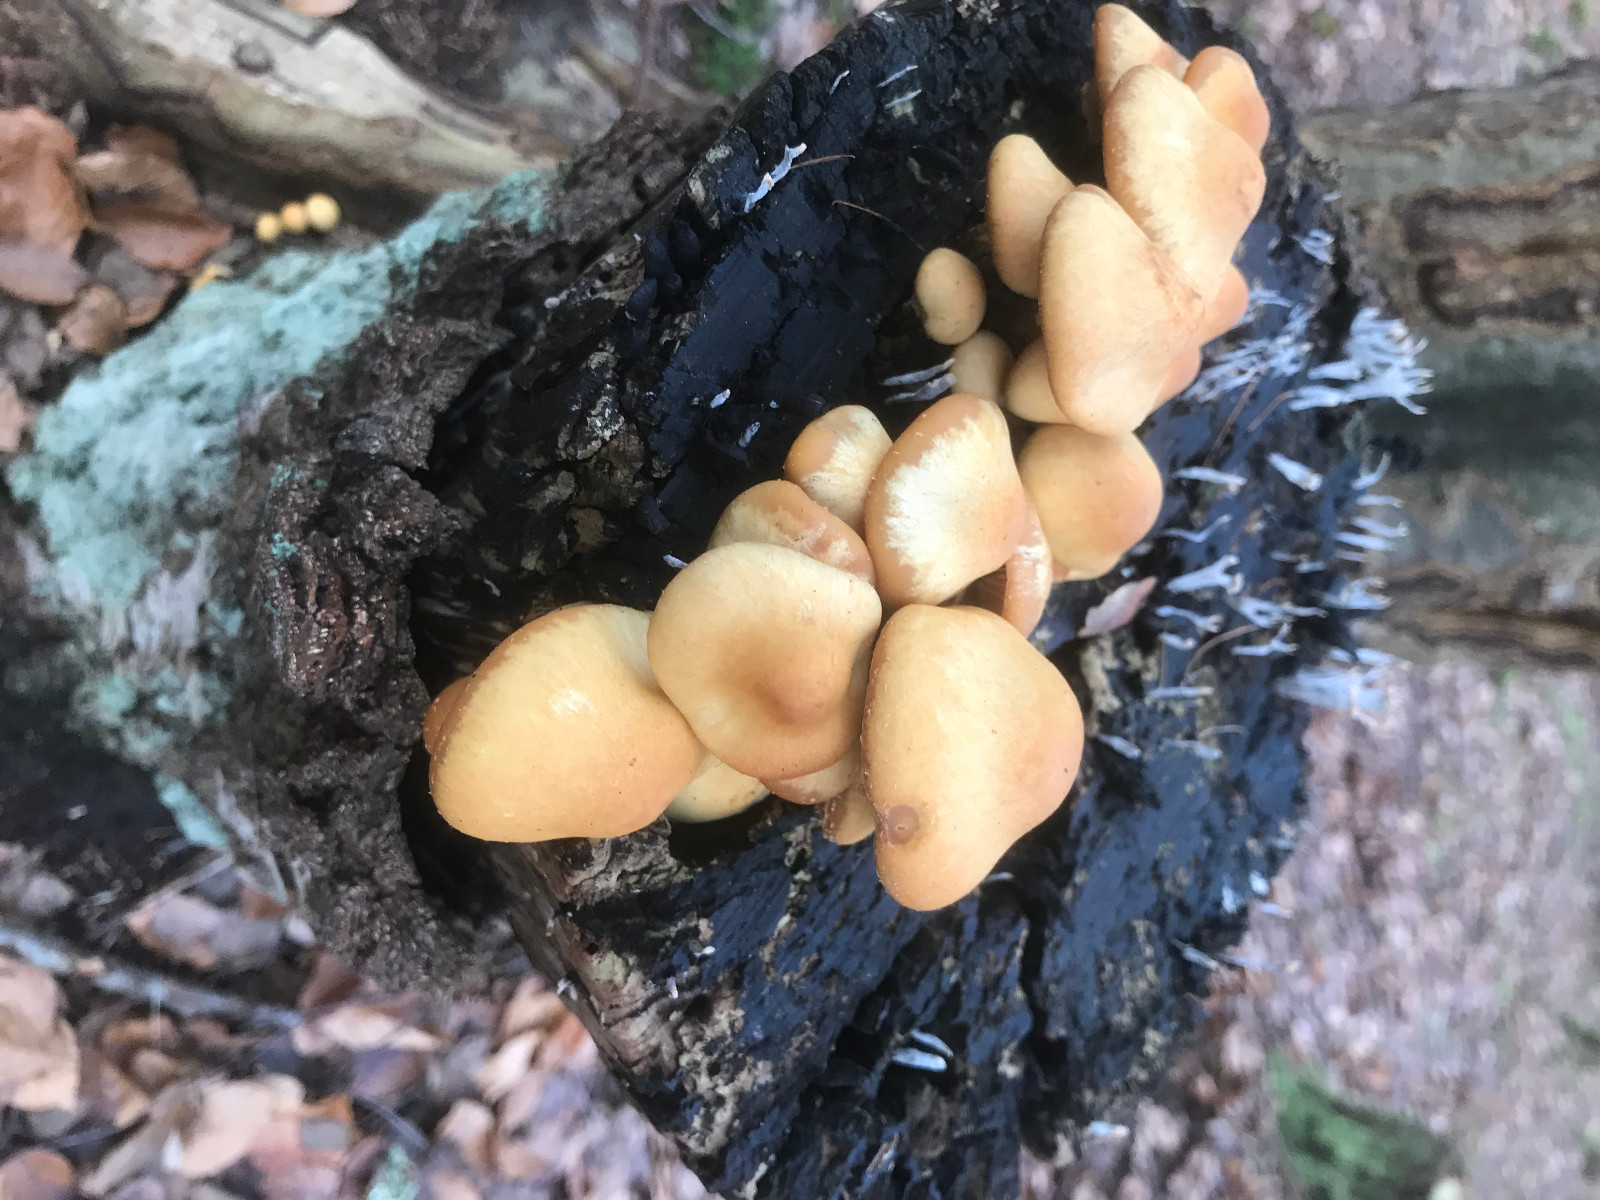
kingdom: Fungi
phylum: Basidiomycota
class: Agaricomycetes
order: Agaricales
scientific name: Agaricales
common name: champignonordenen
